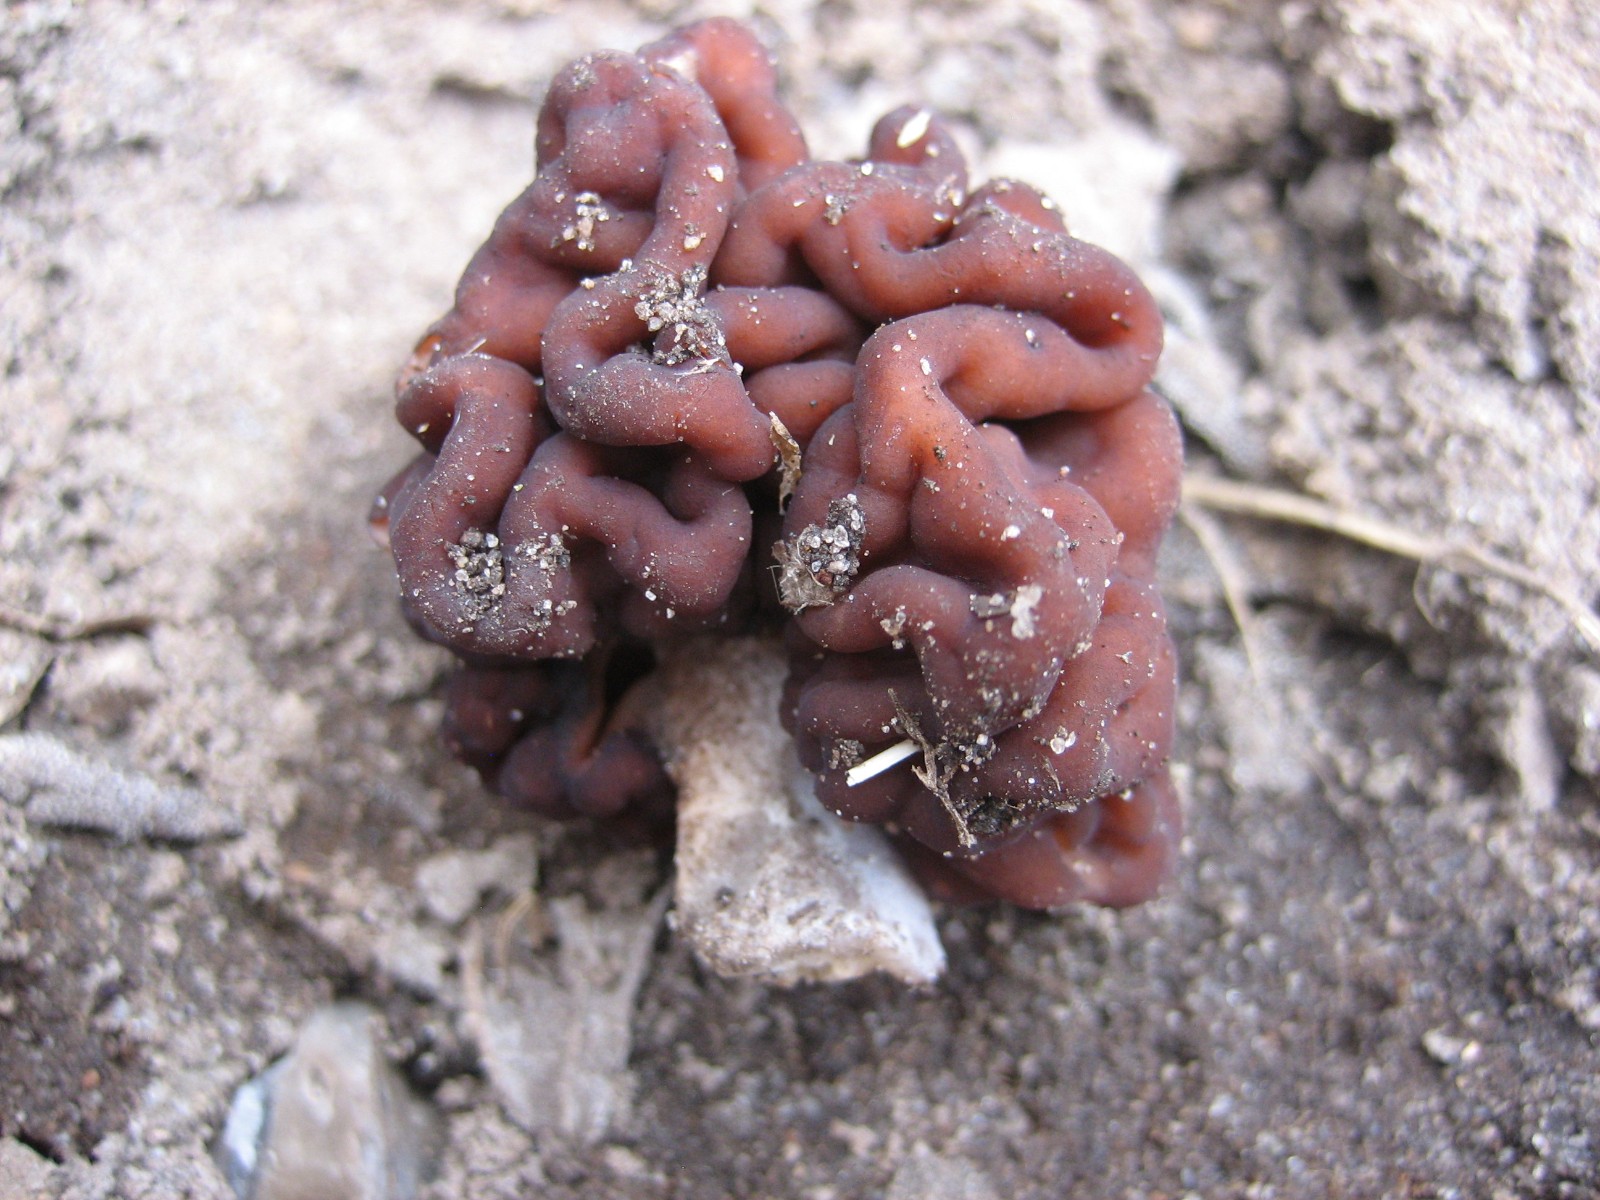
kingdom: Fungi
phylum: Ascomycota
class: Pezizomycetes
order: Pezizales
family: Discinaceae
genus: Gyromitra
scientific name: Gyromitra esculenta
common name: ægte stenmorkel
